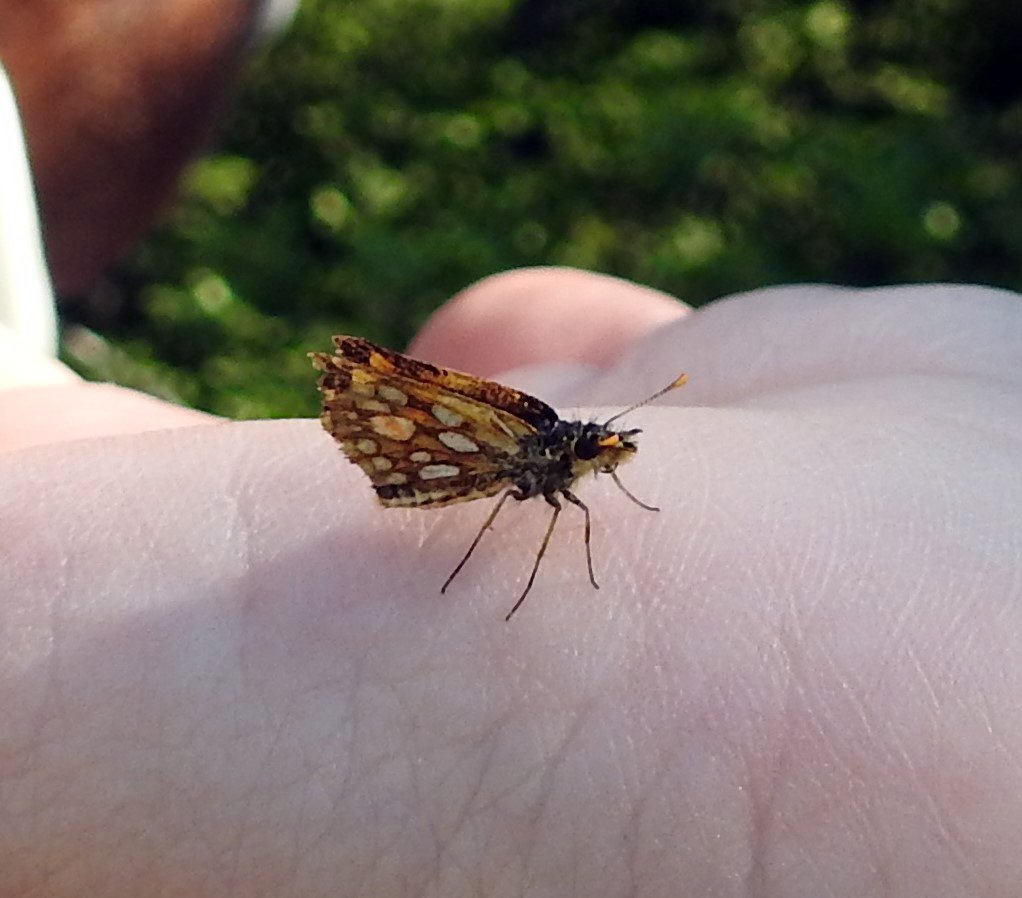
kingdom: Animalia
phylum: Arthropoda
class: Insecta
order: Lepidoptera
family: Hesperiidae
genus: Carterocephalus
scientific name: Carterocephalus palaemon
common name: Chequered Skipper
